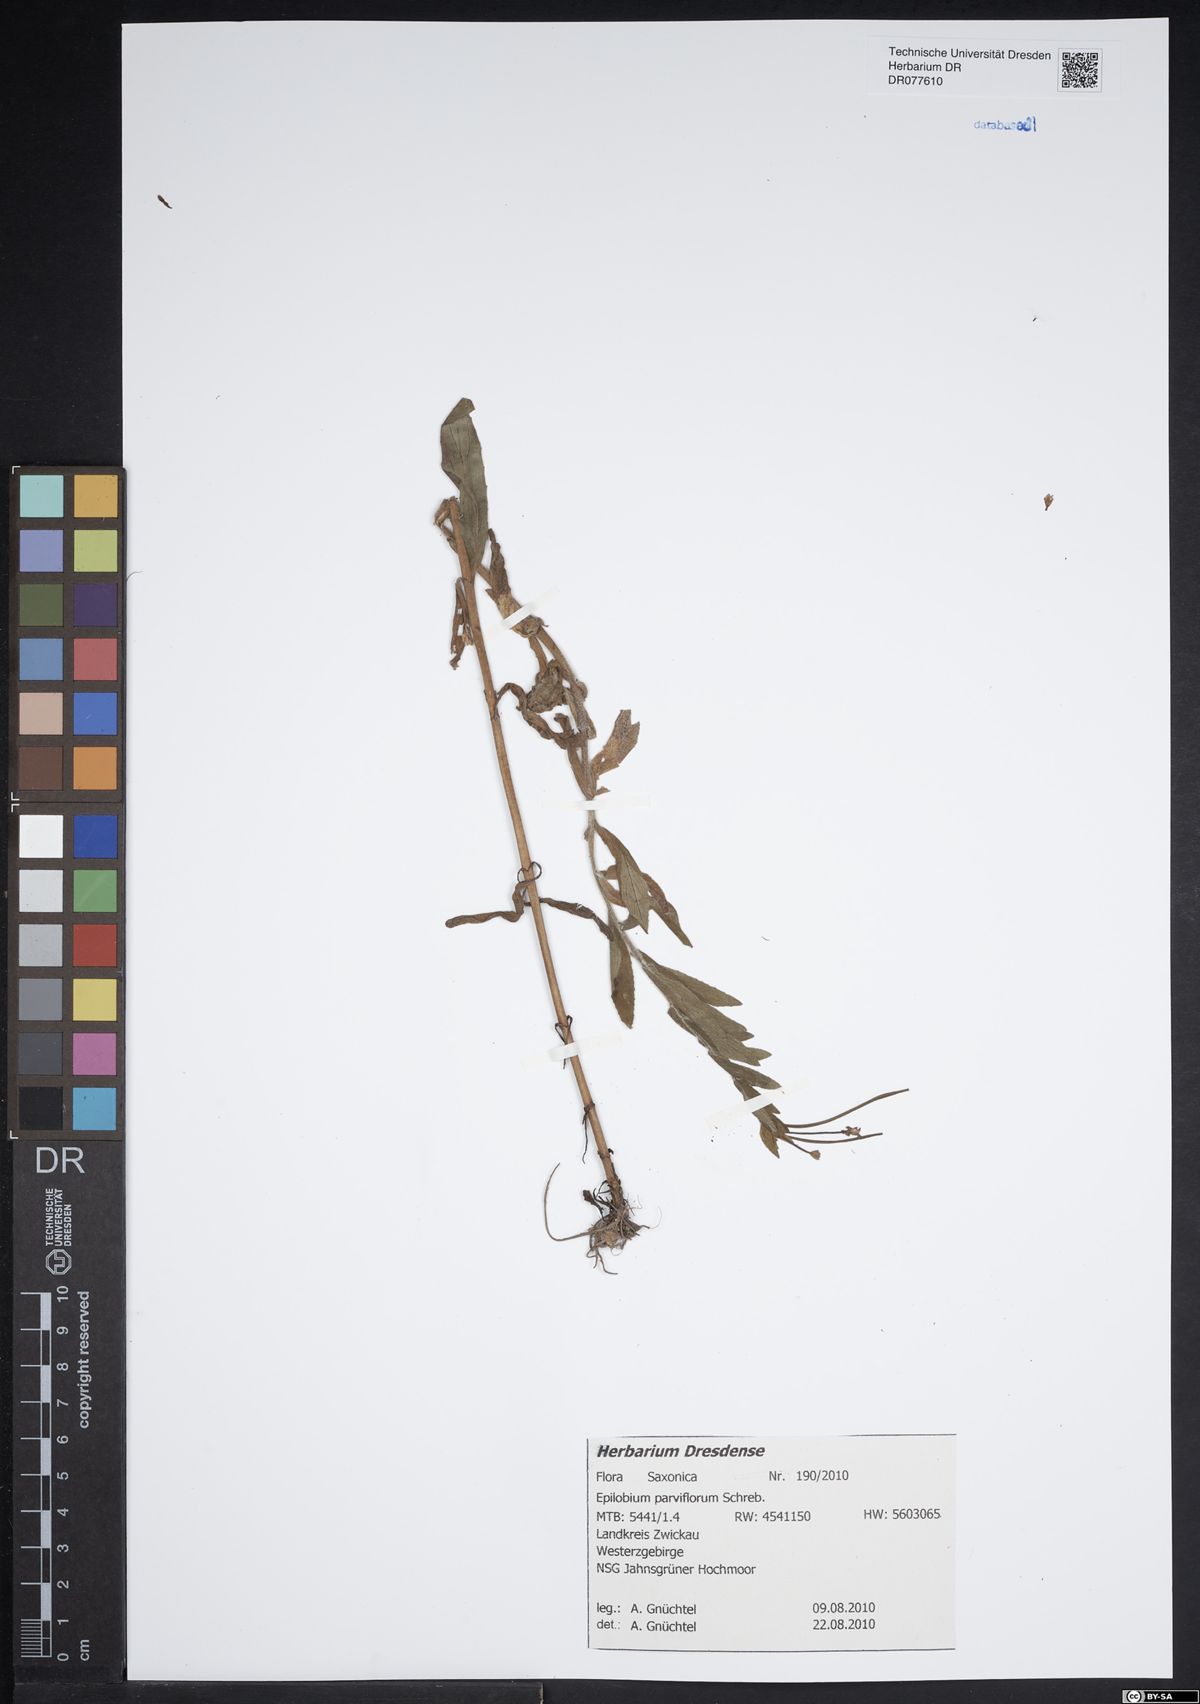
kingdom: Plantae
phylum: Tracheophyta
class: Magnoliopsida
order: Myrtales
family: Onagraceae
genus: Epilobium
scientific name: Epilobium parviflorum
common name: Hoary willowherb
